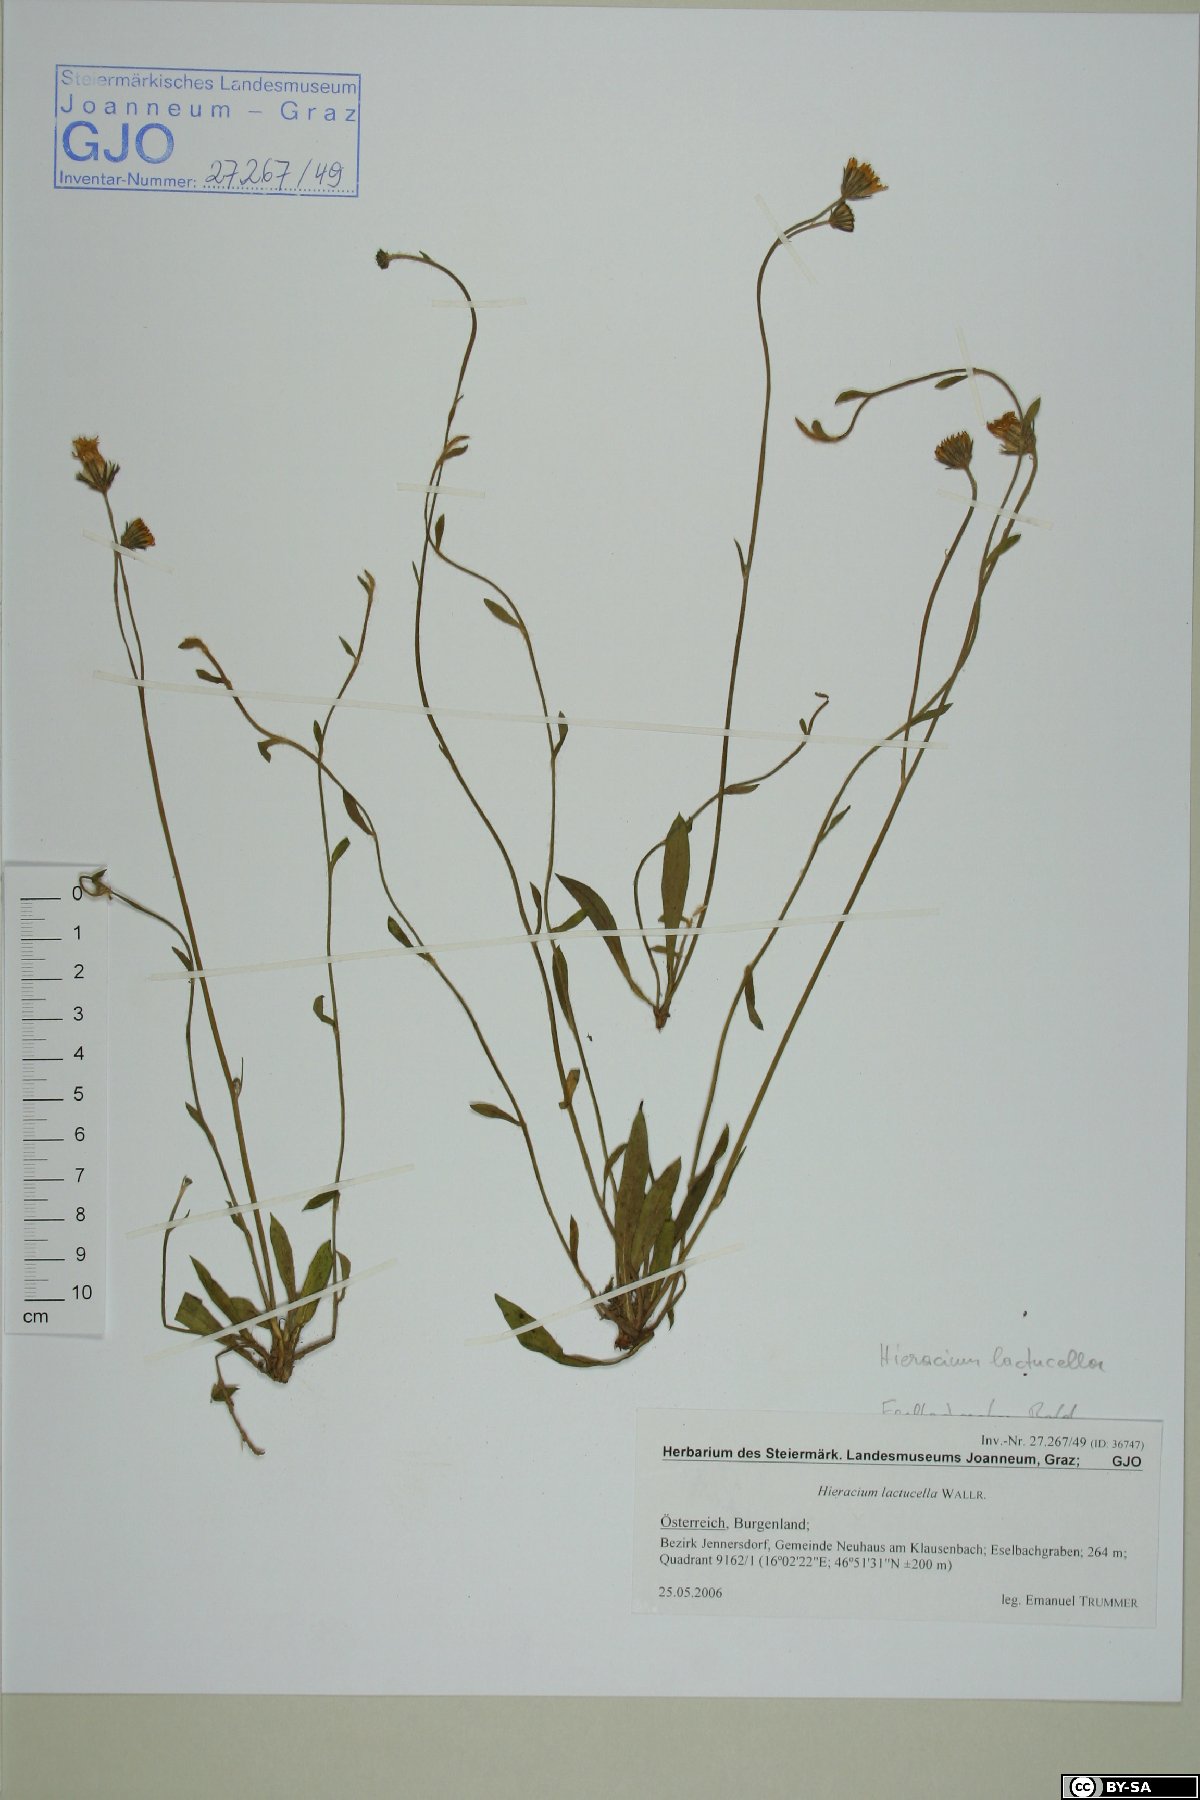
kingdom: Plantae
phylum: Tracheophyta
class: Magnoliopsida
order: Asterales
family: Asteraceae
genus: Pilosella
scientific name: Pilosella lactucella
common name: Glaucous fox-and-cubs
